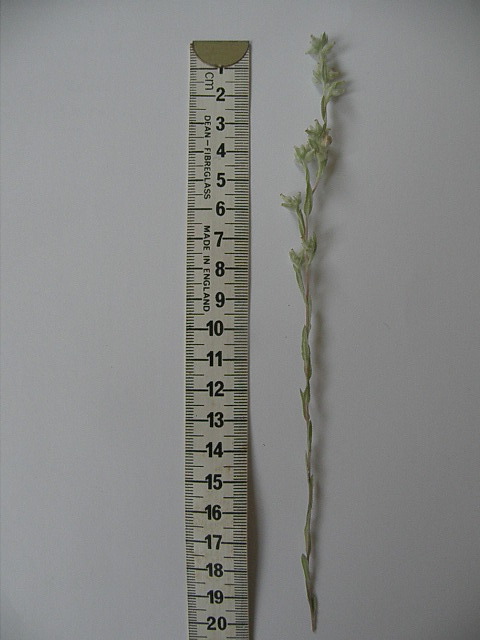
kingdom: Plantae
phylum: Tracheophyta
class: Magnoliopsida
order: Asterales
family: Asteraceae
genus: Filago
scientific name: Filago arvensis
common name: Field cudweed
